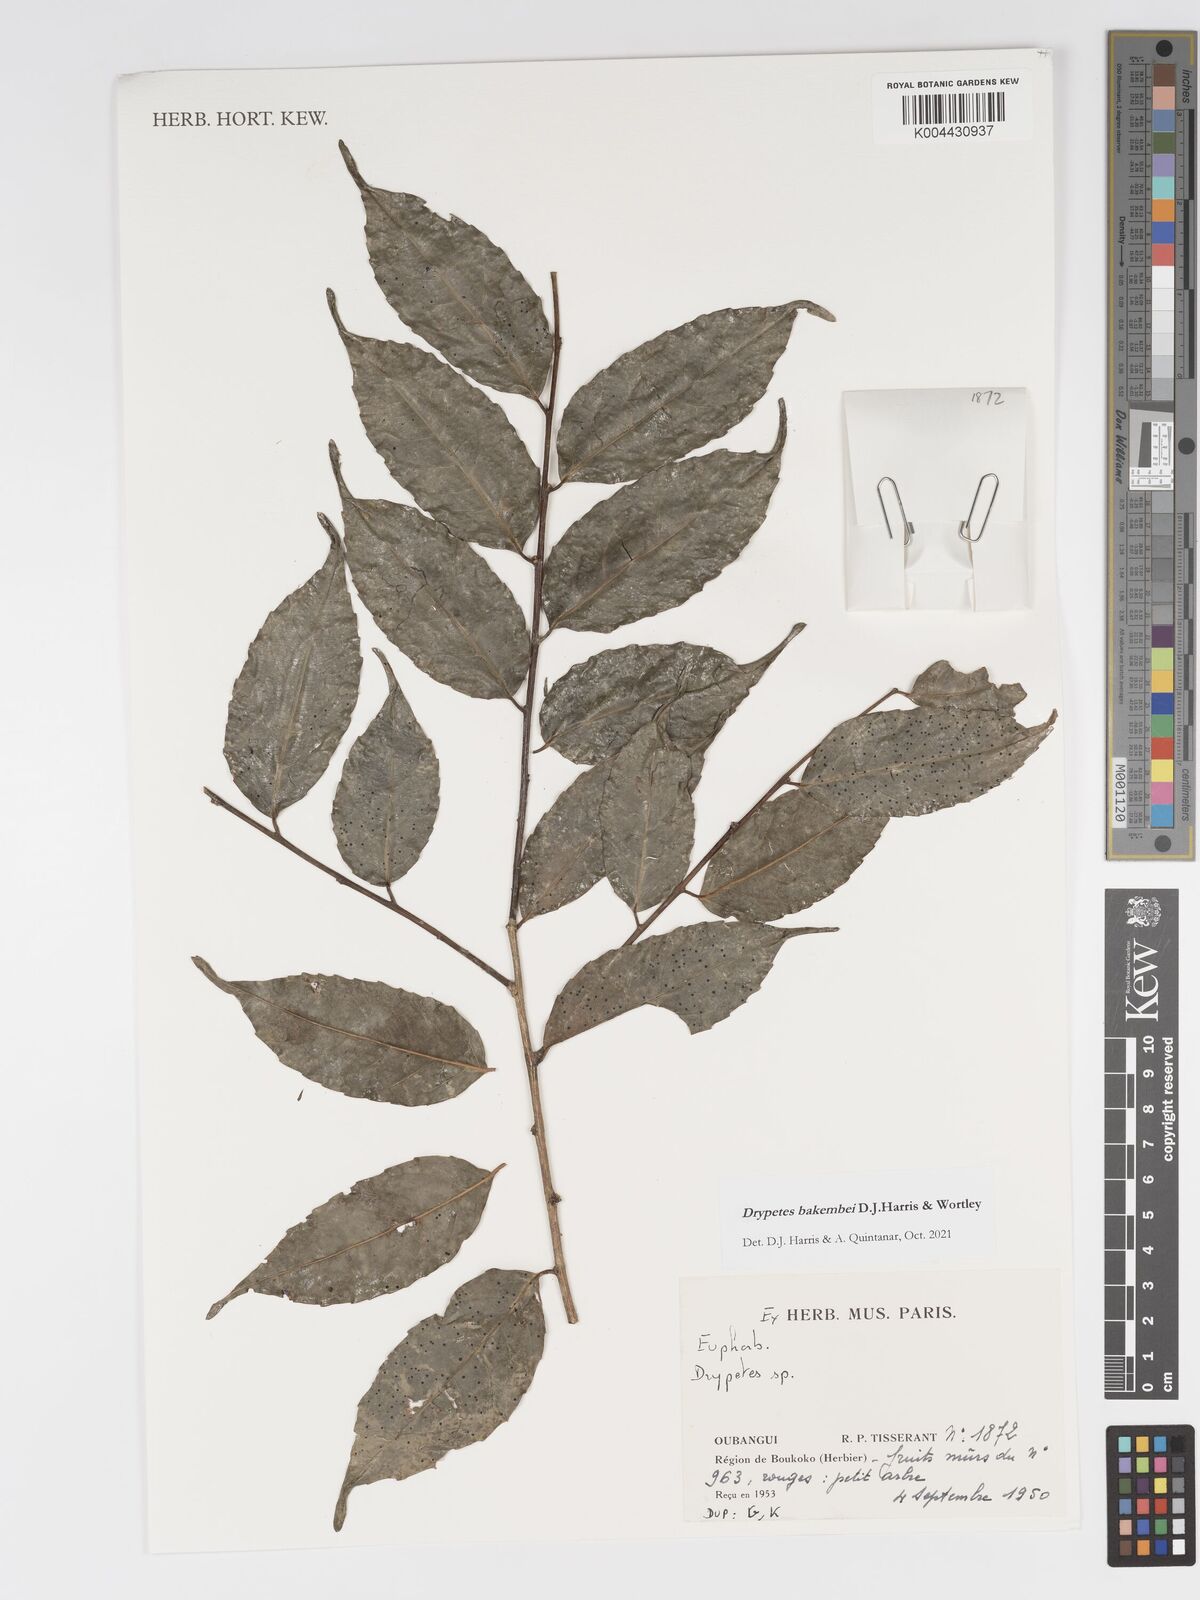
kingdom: Plantae
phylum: Tracheophyta
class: Magnoliopsida
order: Malpighiales
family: Putranjivaceae
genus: Drypetes
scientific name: Drypetes bakembei
